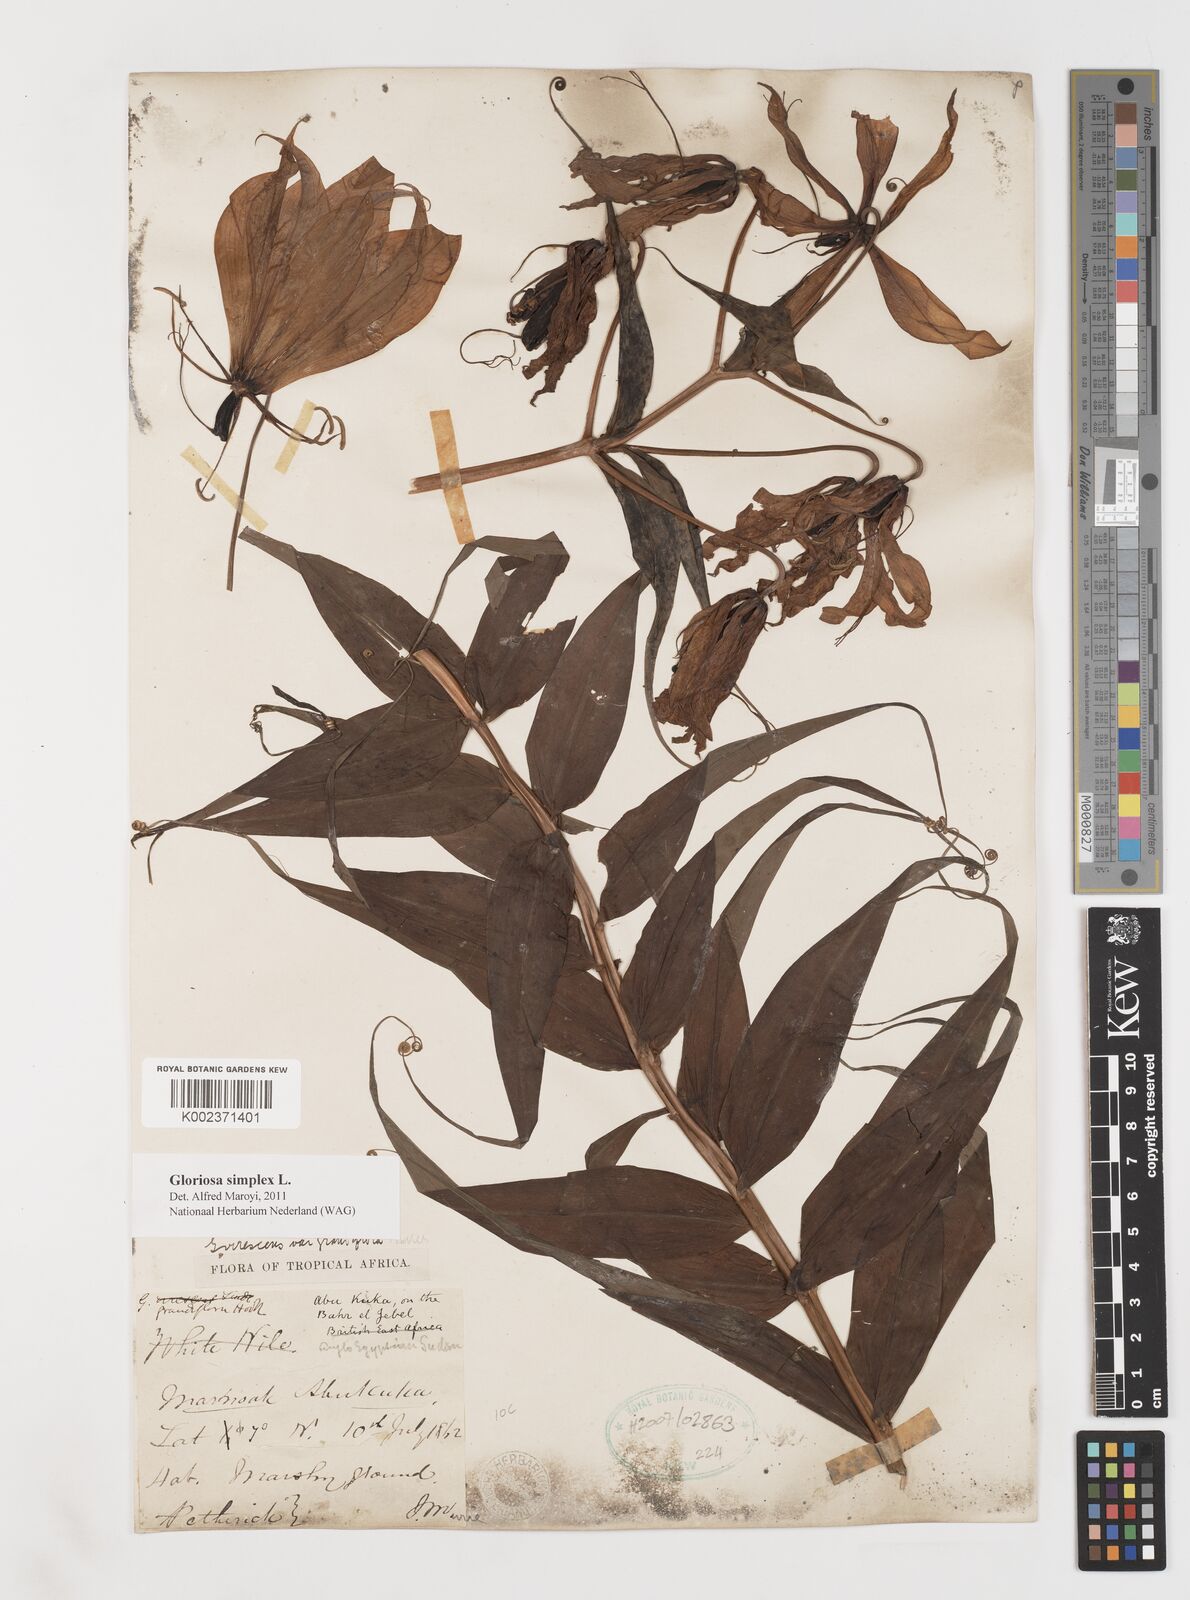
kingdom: Plantae
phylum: Tracheophyta
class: Liliopsida
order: Liliales
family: Colchicaceae
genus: Gloriosa
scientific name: Gloriosa simplex
